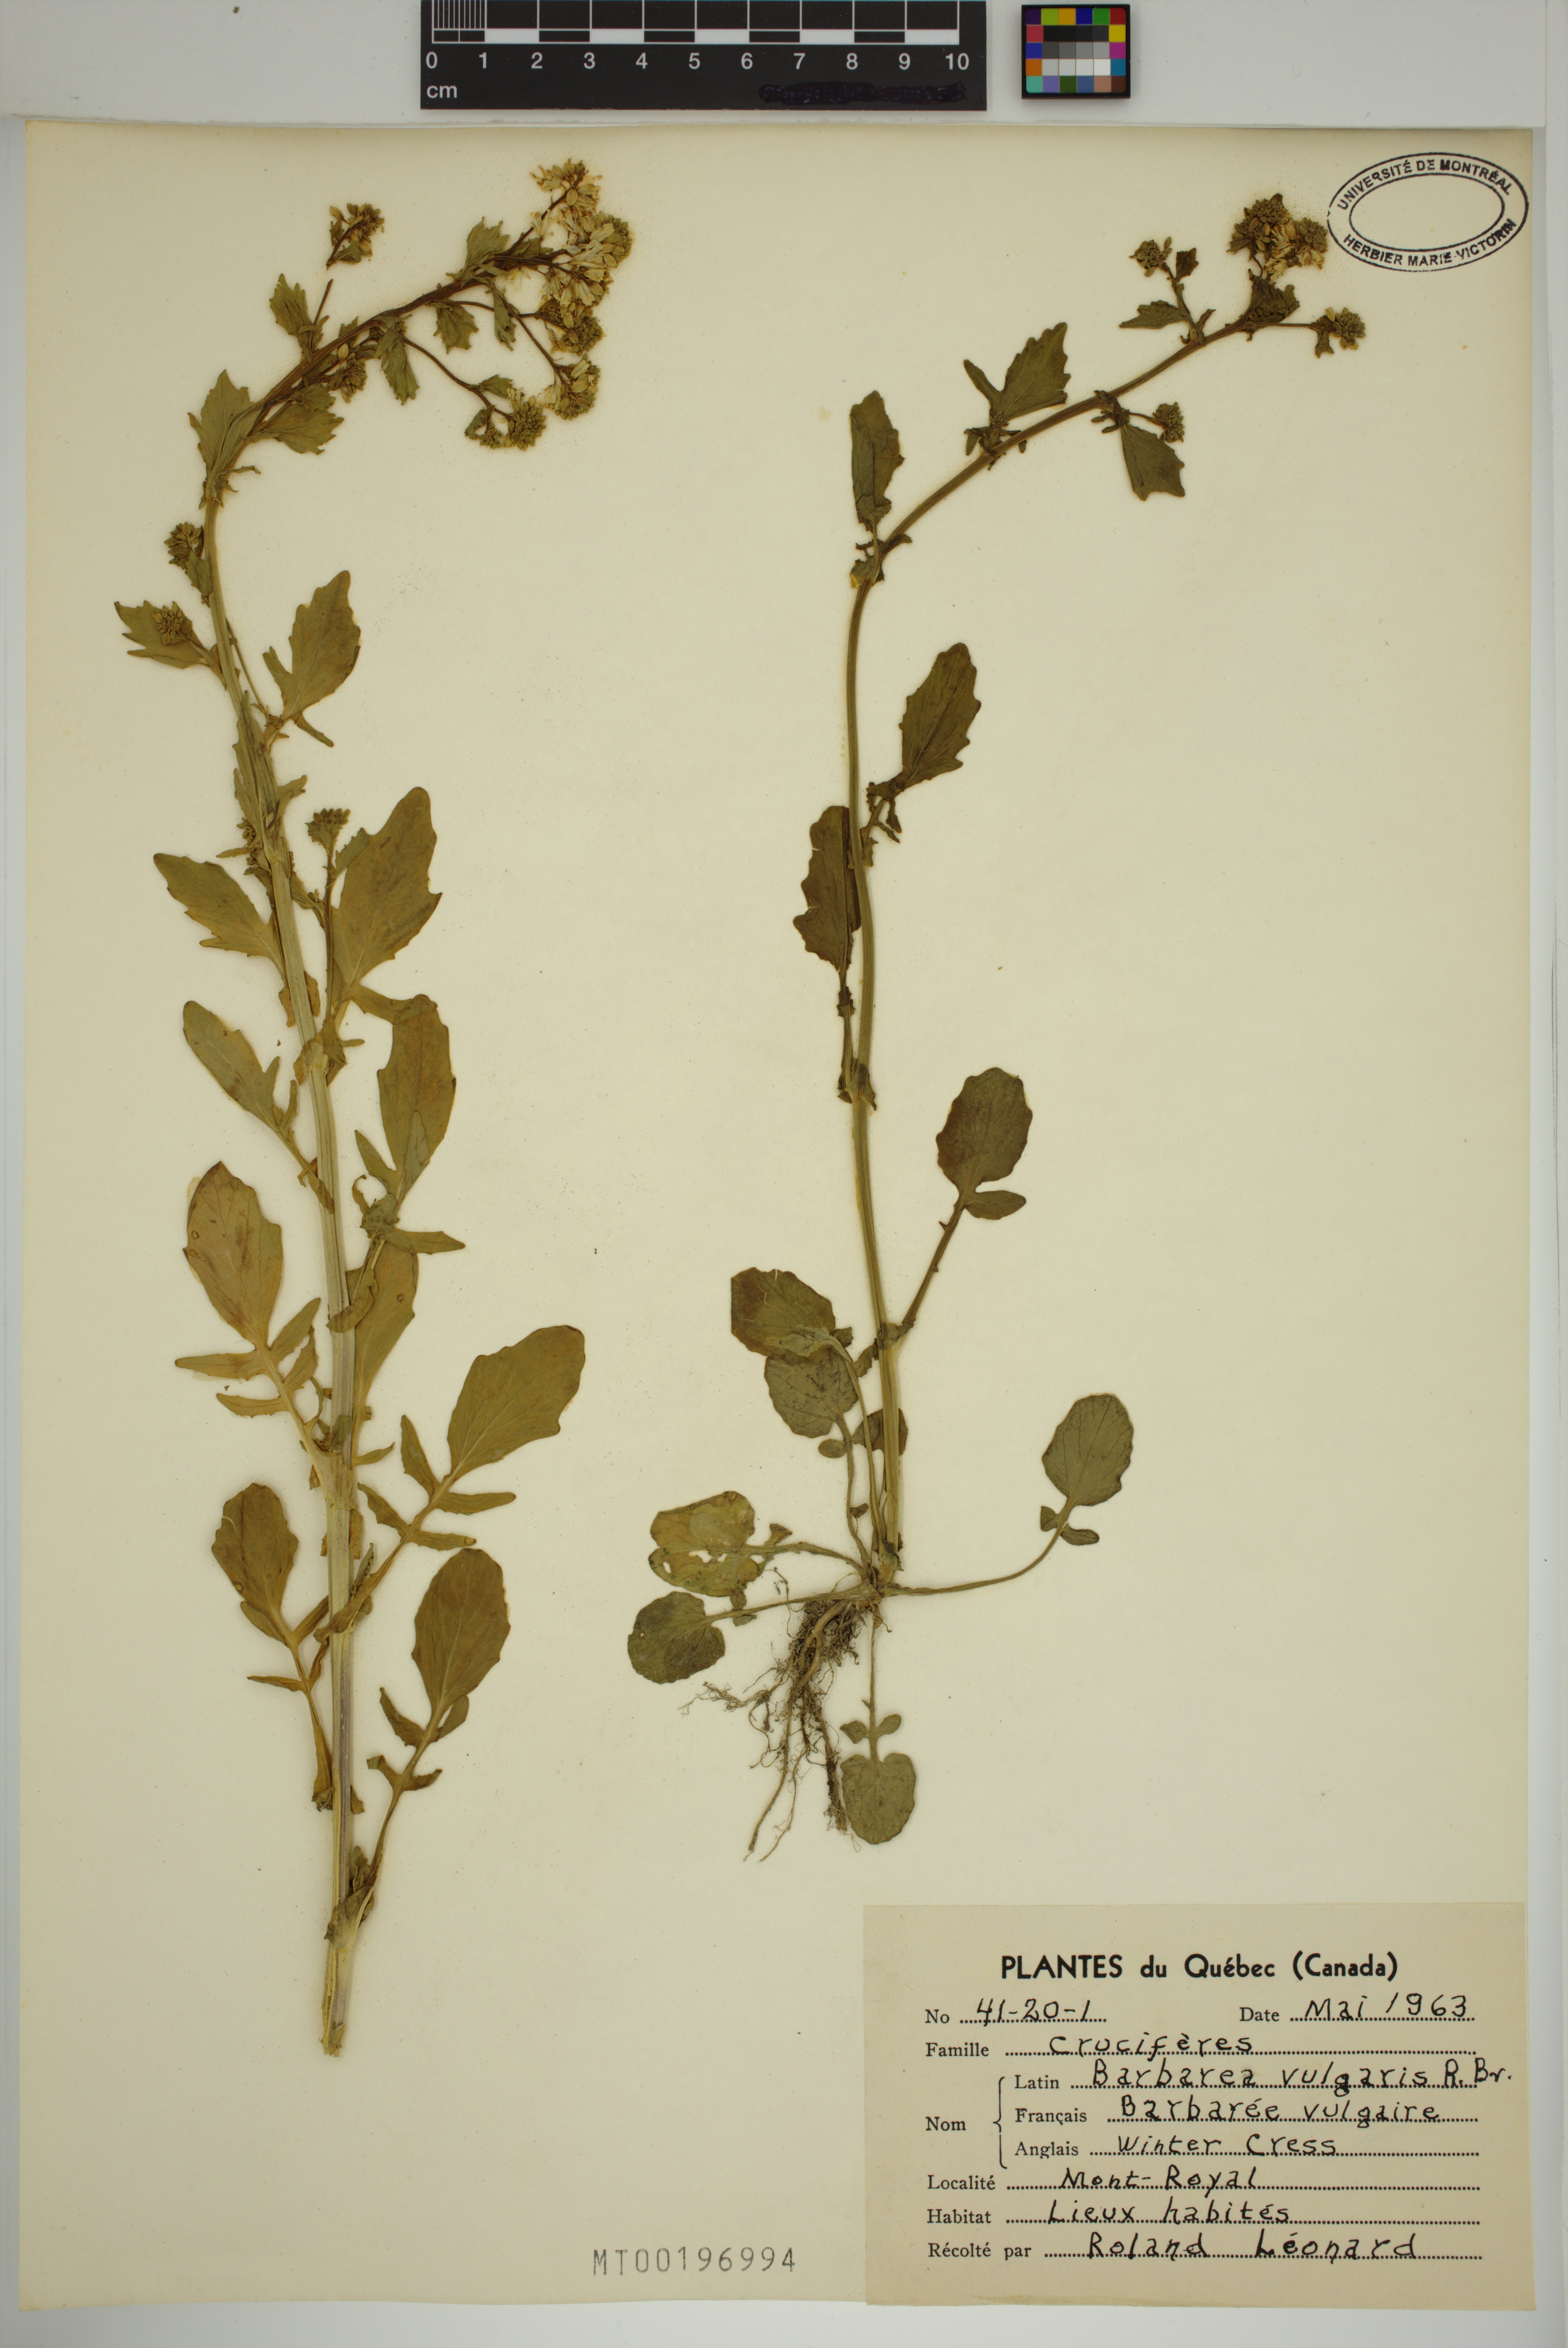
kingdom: Plantae
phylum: Tracheophyta
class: Magnoliopsida
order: Brassicales
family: Brassicaceae
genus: Barbarea
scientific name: Barbarea vulgaris
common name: Cressy-greens
